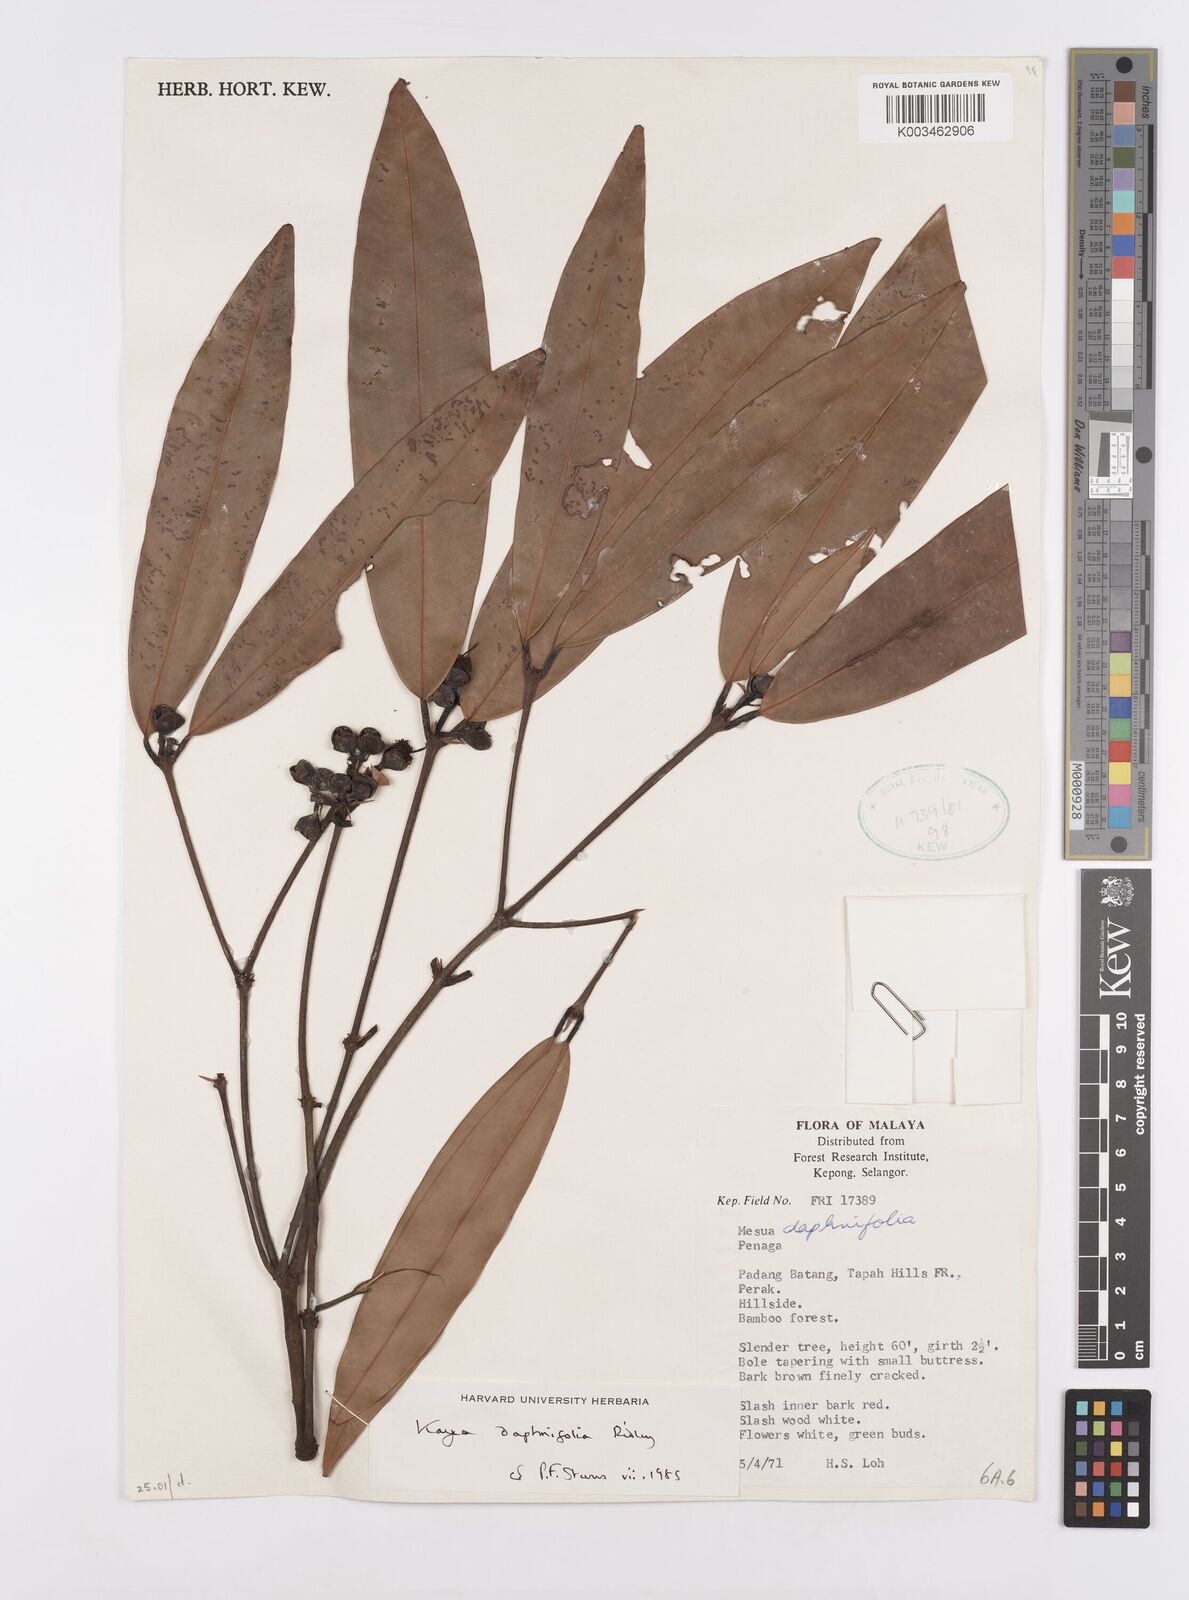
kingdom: Plantae
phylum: Tracheophyta
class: Magnoliopsida
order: Malpighiales
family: Calophyllaceae
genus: Kayea
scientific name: Kayea daphnifolia
